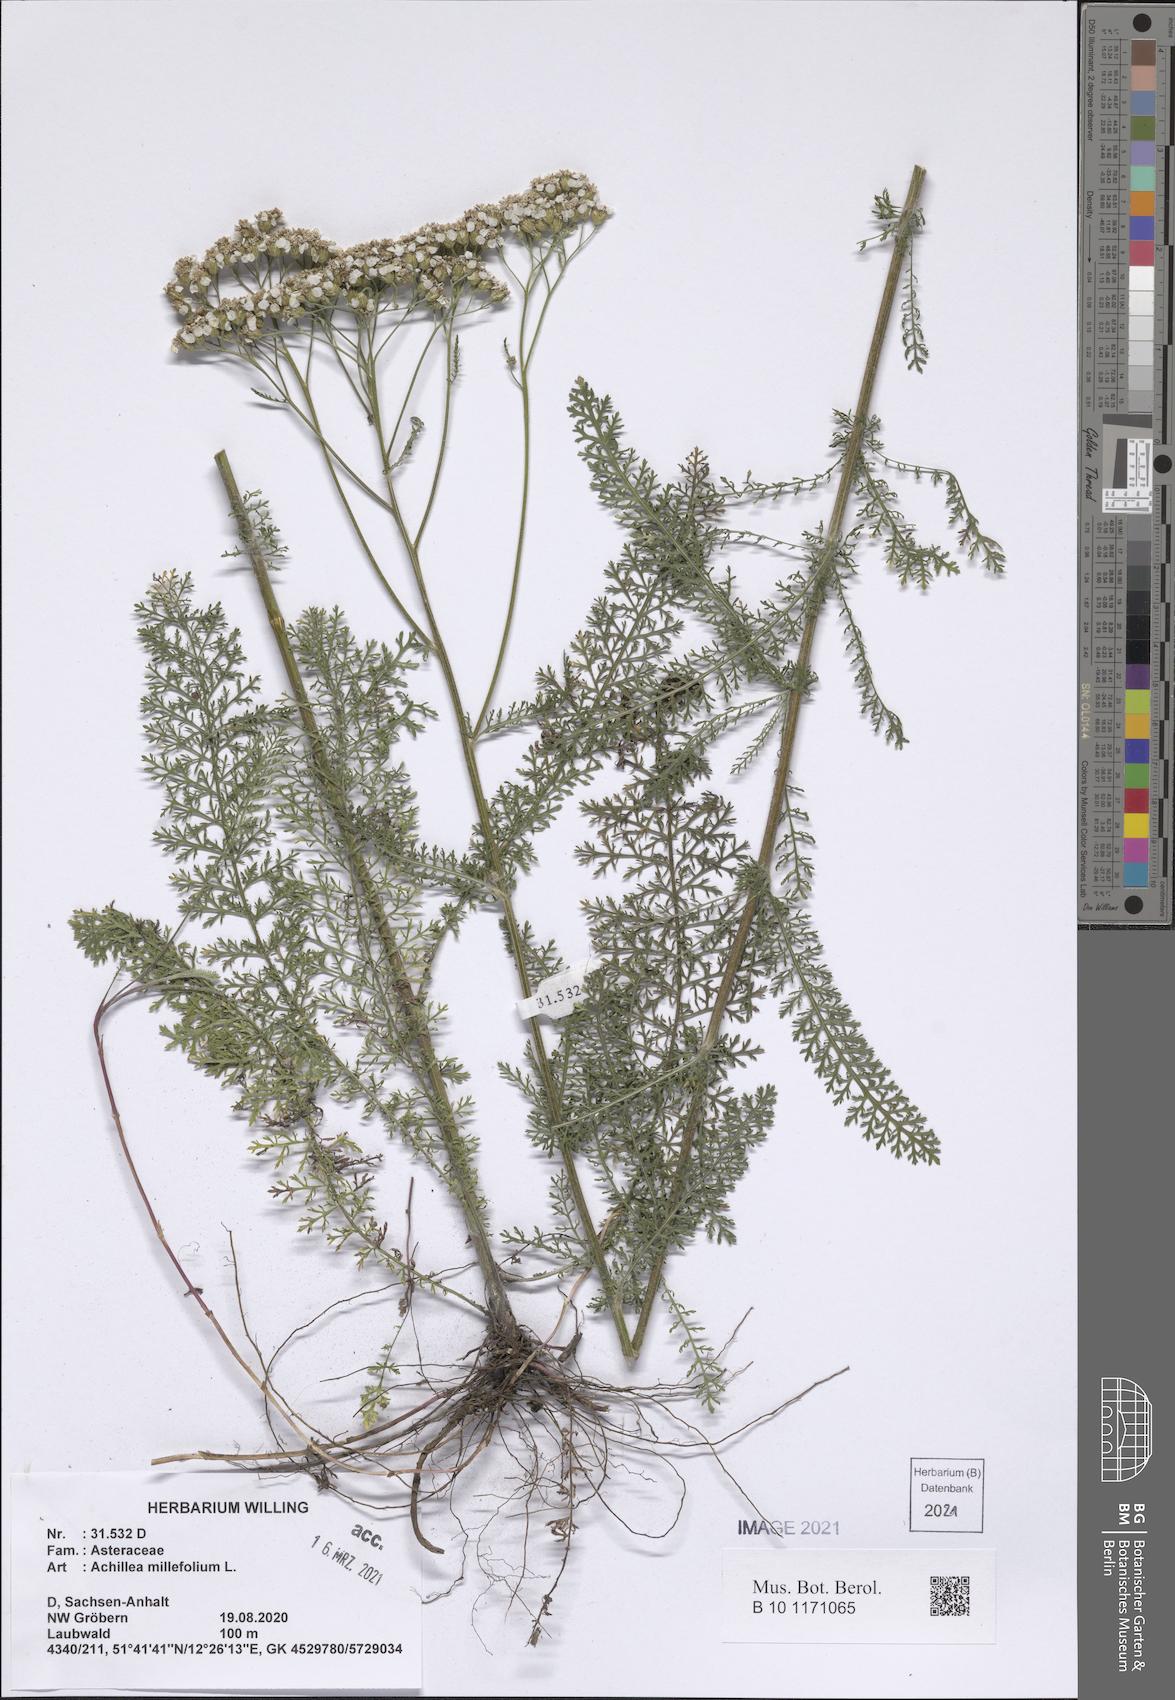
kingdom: Plantae
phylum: Tracheophyta
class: Magnoliopsida
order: Asterales
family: Asteraceae
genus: Achillea
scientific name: Achillea millefolium
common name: Yarrow
